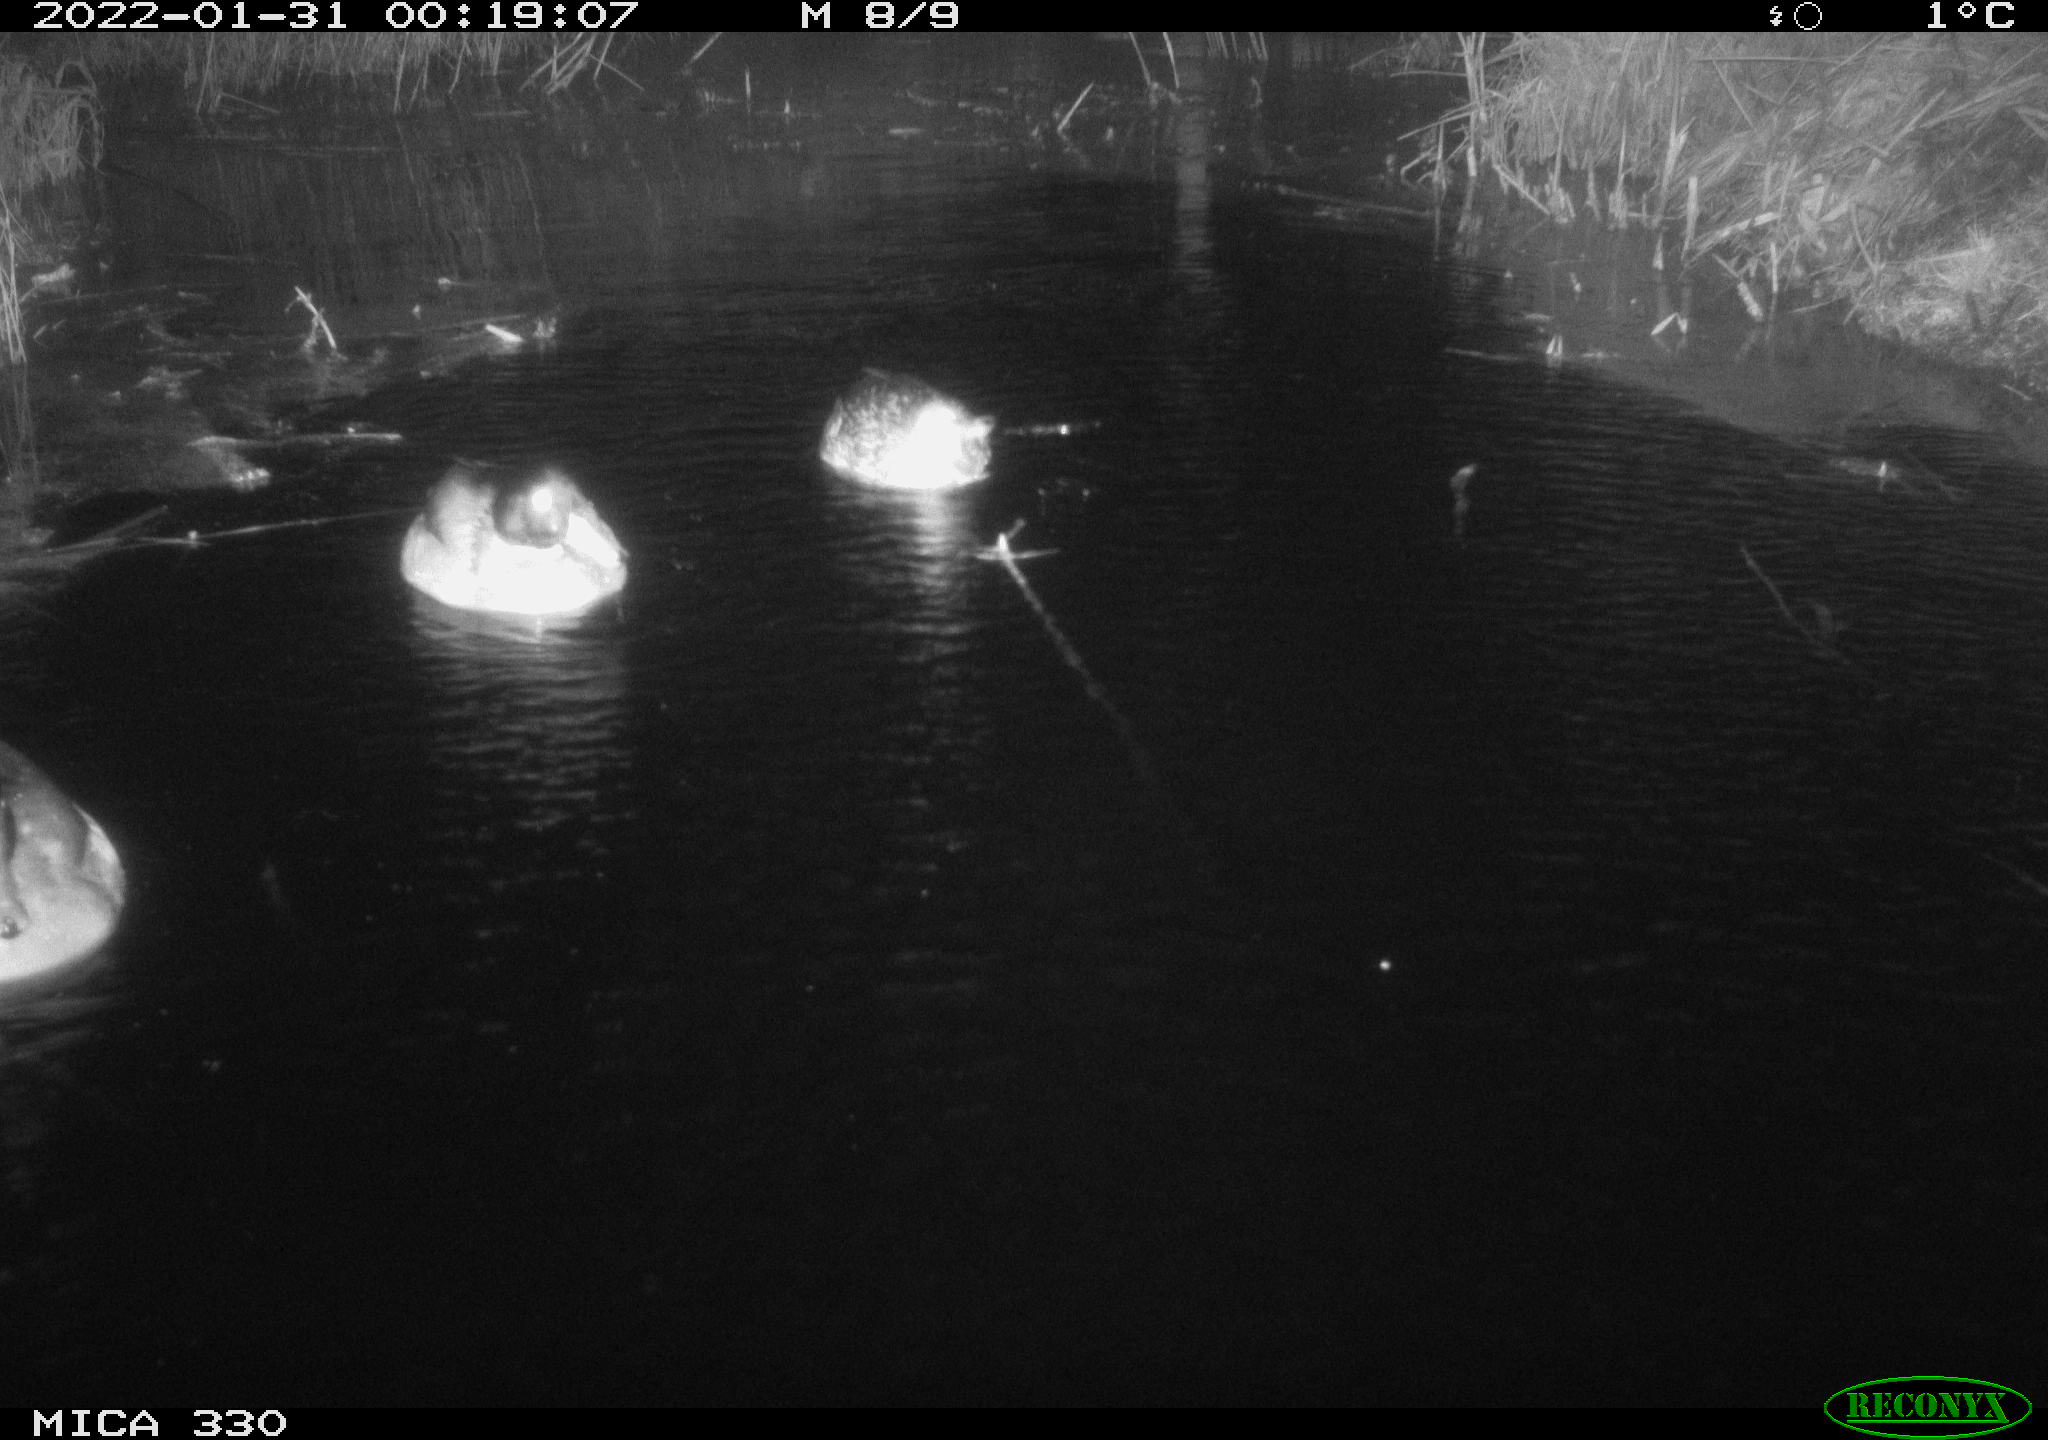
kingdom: Animalia
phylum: Chordata
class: Aves
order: Anseriformes
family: Anatidae
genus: Anas
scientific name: Anas platyrhynchos
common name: Mallard
